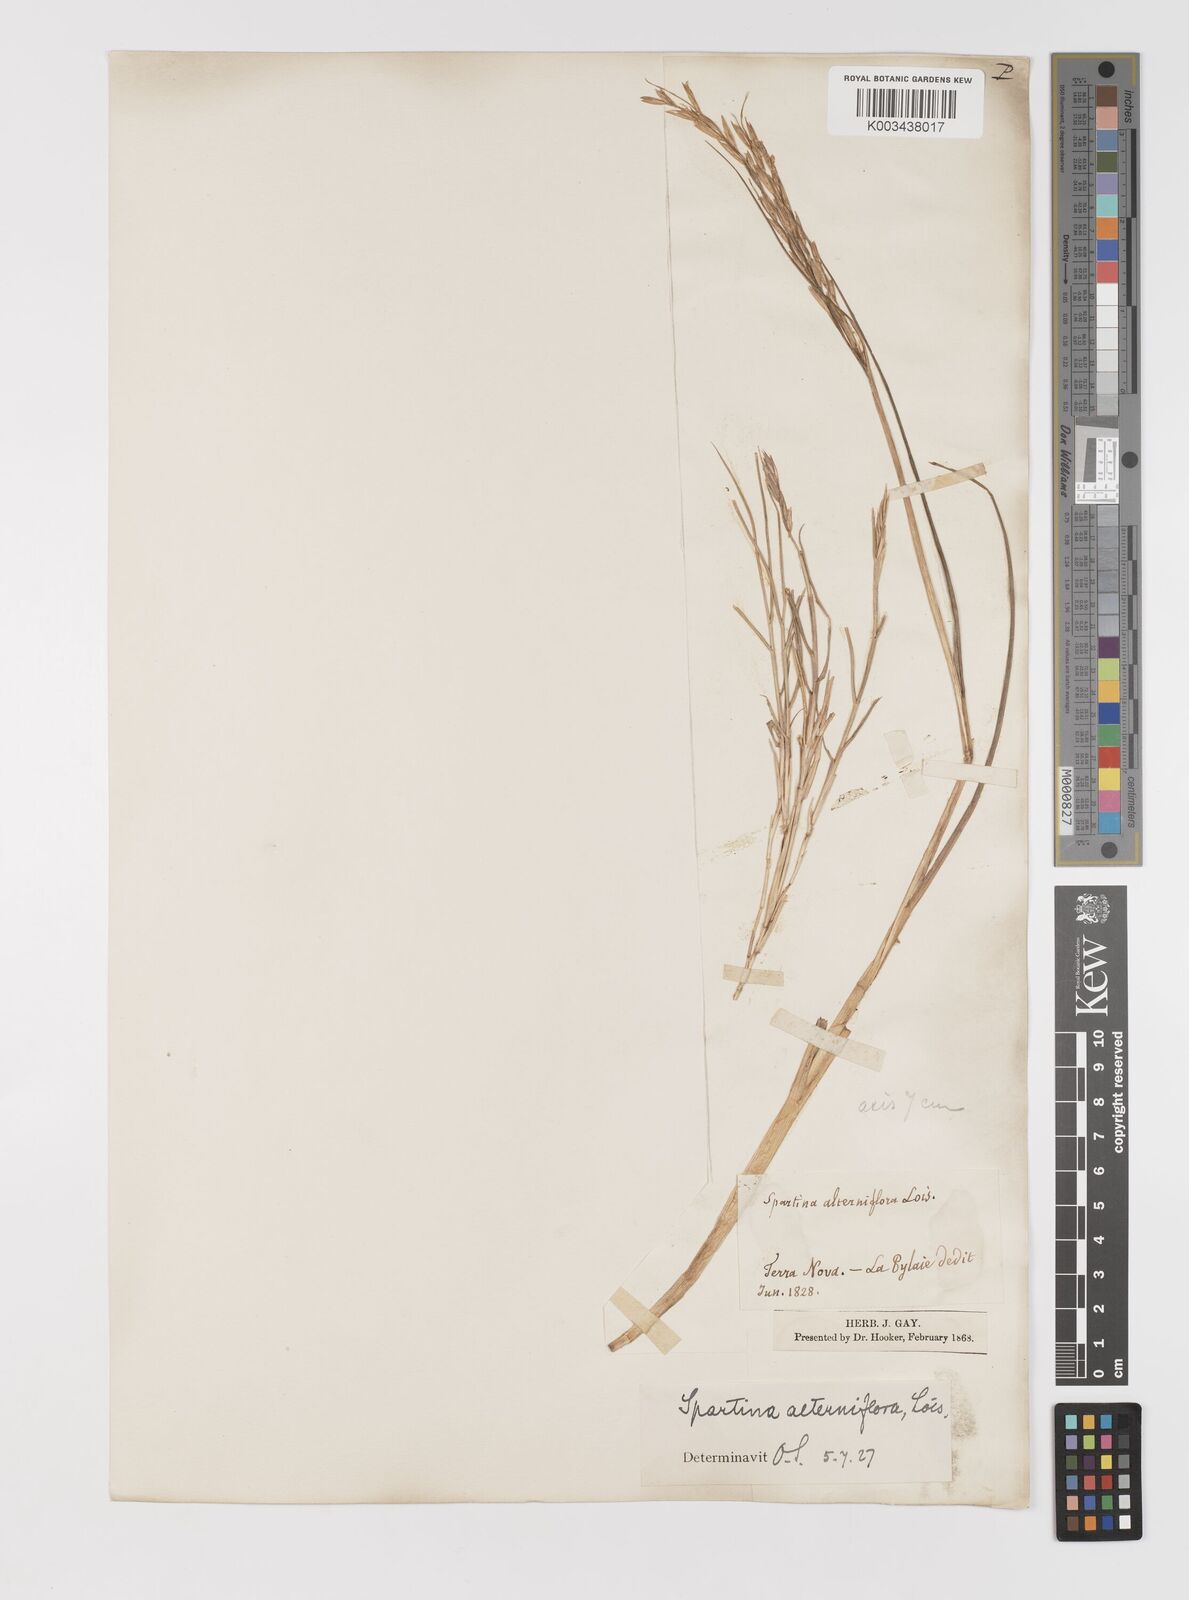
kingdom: Animalia
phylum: Mollusca
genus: Spartina
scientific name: Spartina
